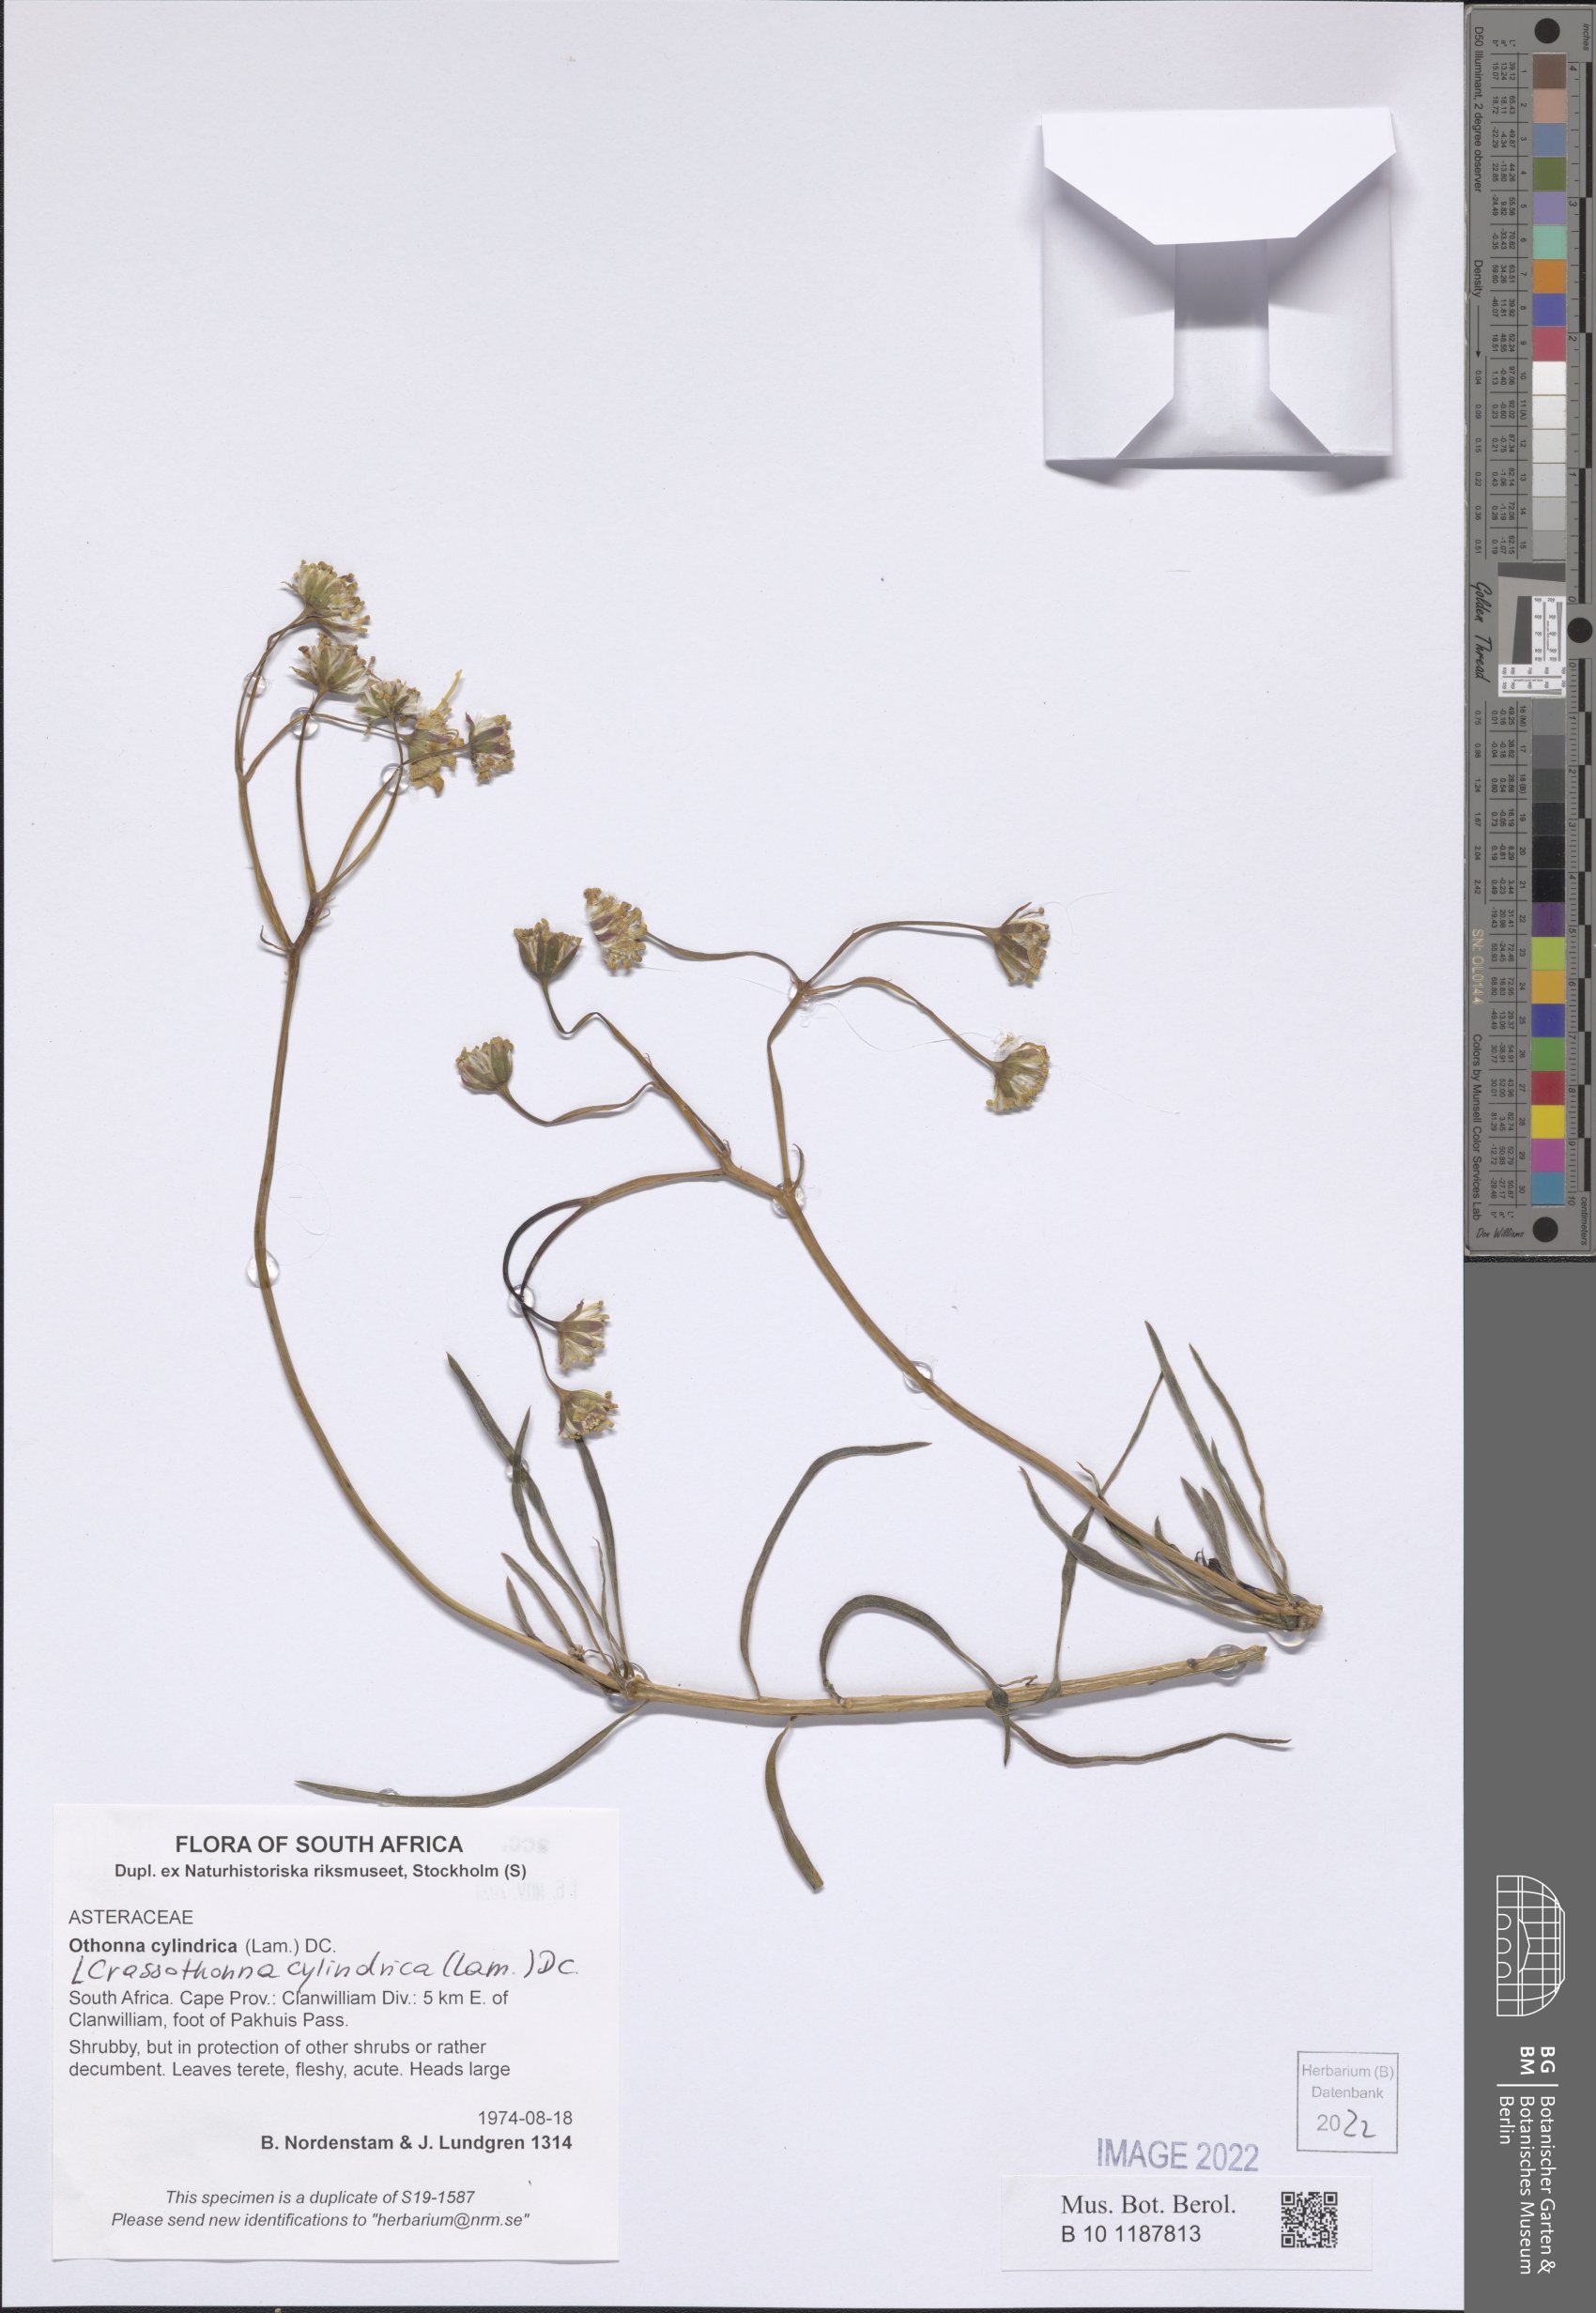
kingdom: Plantae
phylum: Tracheophyta
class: Magnoliopsida
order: Asterales
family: Asteraceae
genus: Crassothonna
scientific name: Crassothonna cylindrica
